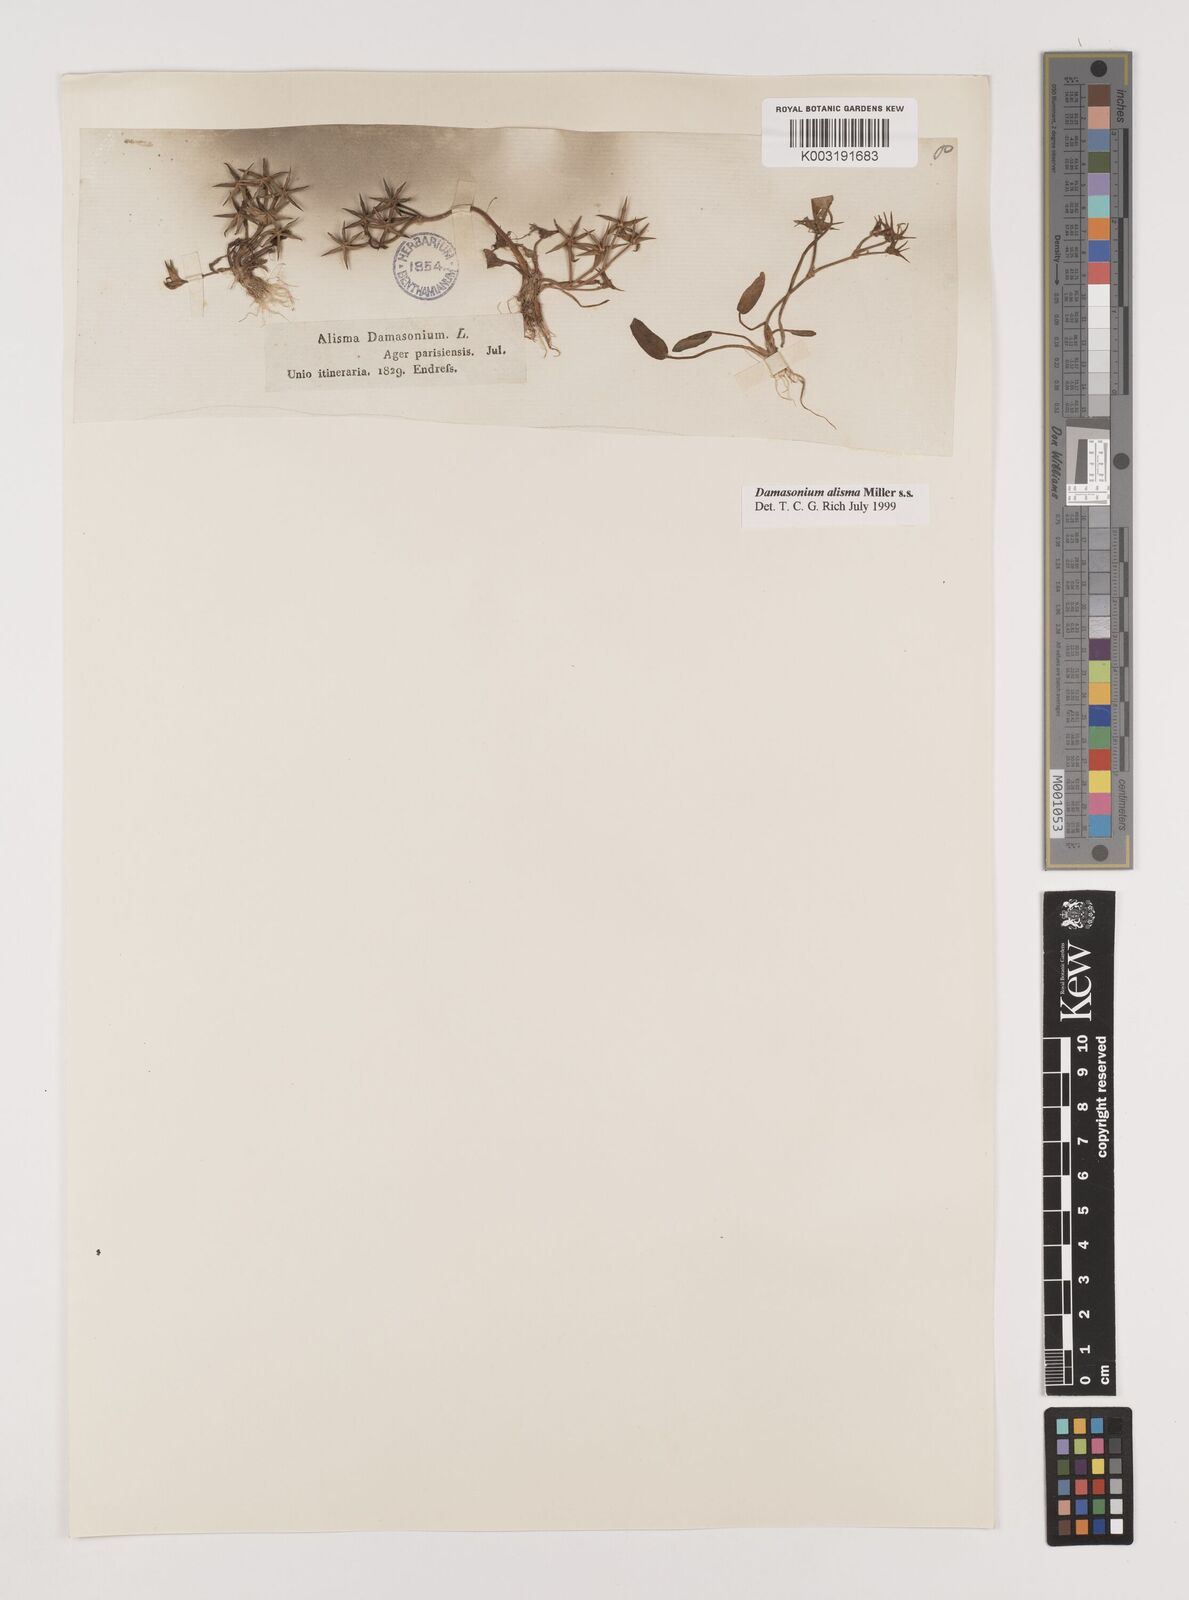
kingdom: Plantae
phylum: Tracheophyta
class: Liliopsida
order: Alismatales
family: Alismataceae
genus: Damasonium
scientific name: Damasonium alisma
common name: Starfruit
